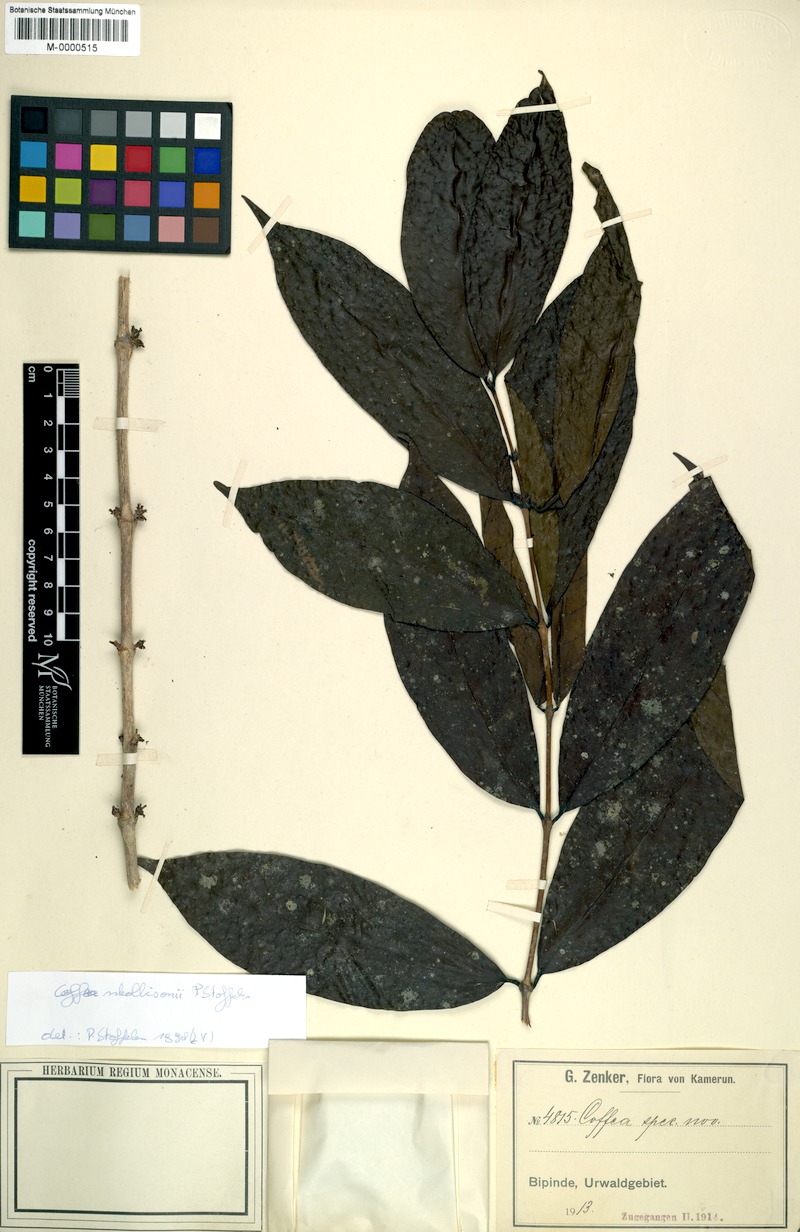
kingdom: Plantae
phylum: Tracheophyta
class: Magnoliopsida
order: Gentianales
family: Rubiaceae
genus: Coffea
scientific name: Coffea nkolbisonii
